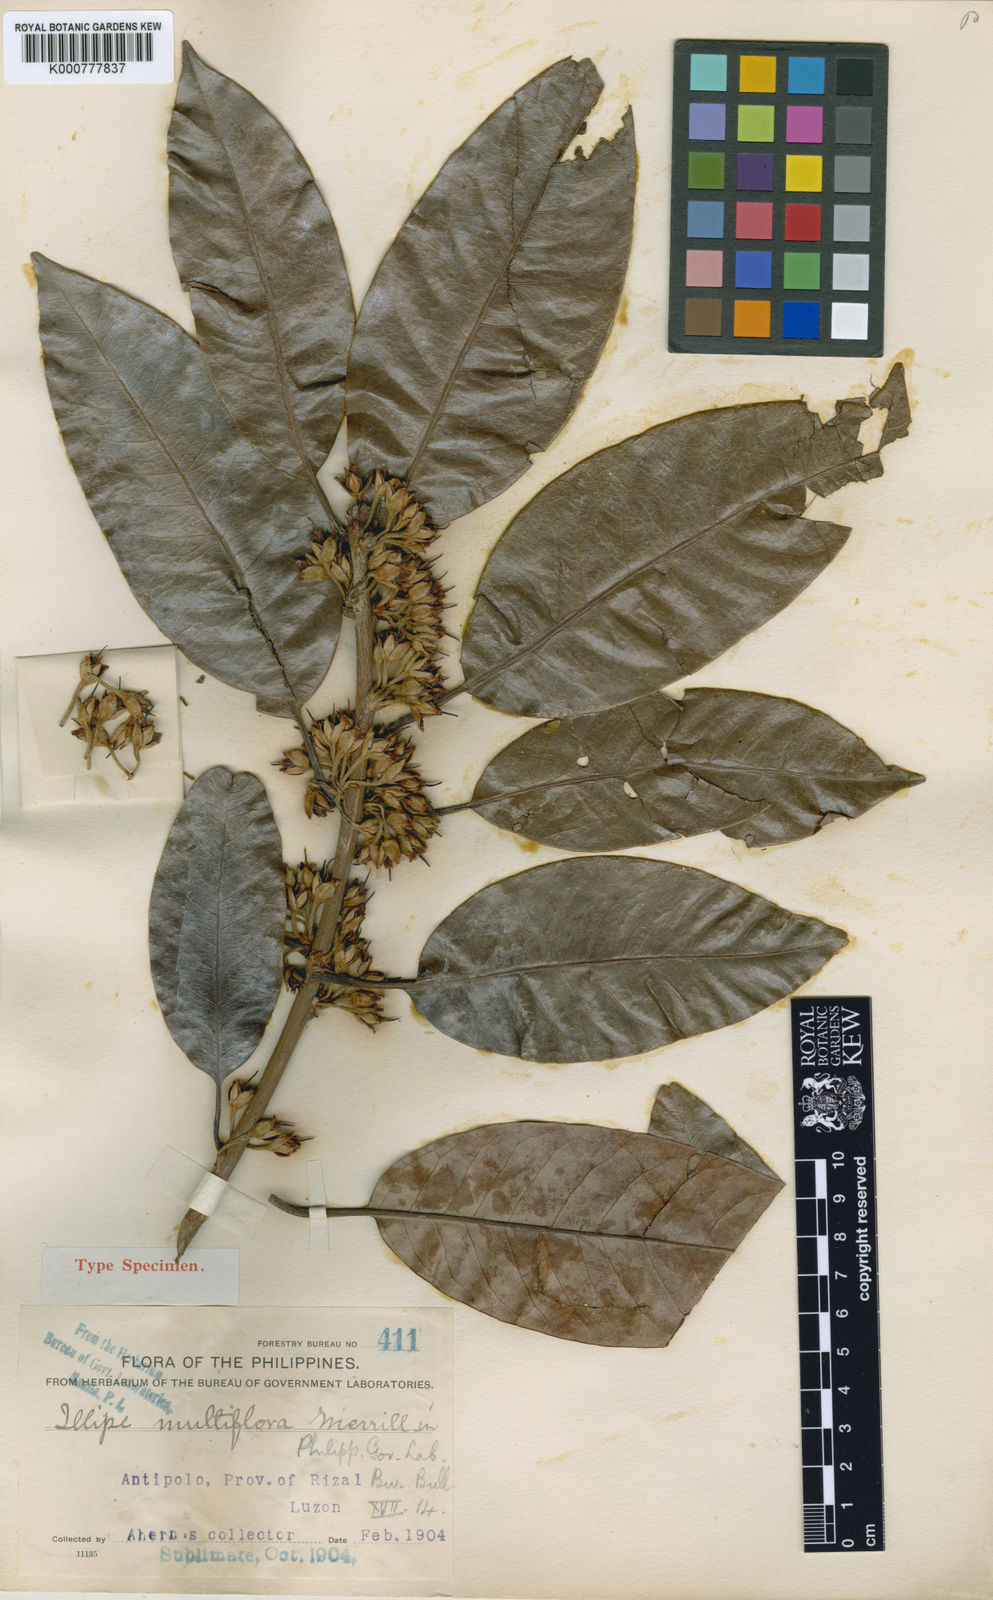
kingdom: Plantae
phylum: Tracheophyta
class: Magnoliopsida
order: Ericales
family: Sapotaceae
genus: Madhuca
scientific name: Madhuca multiflora
